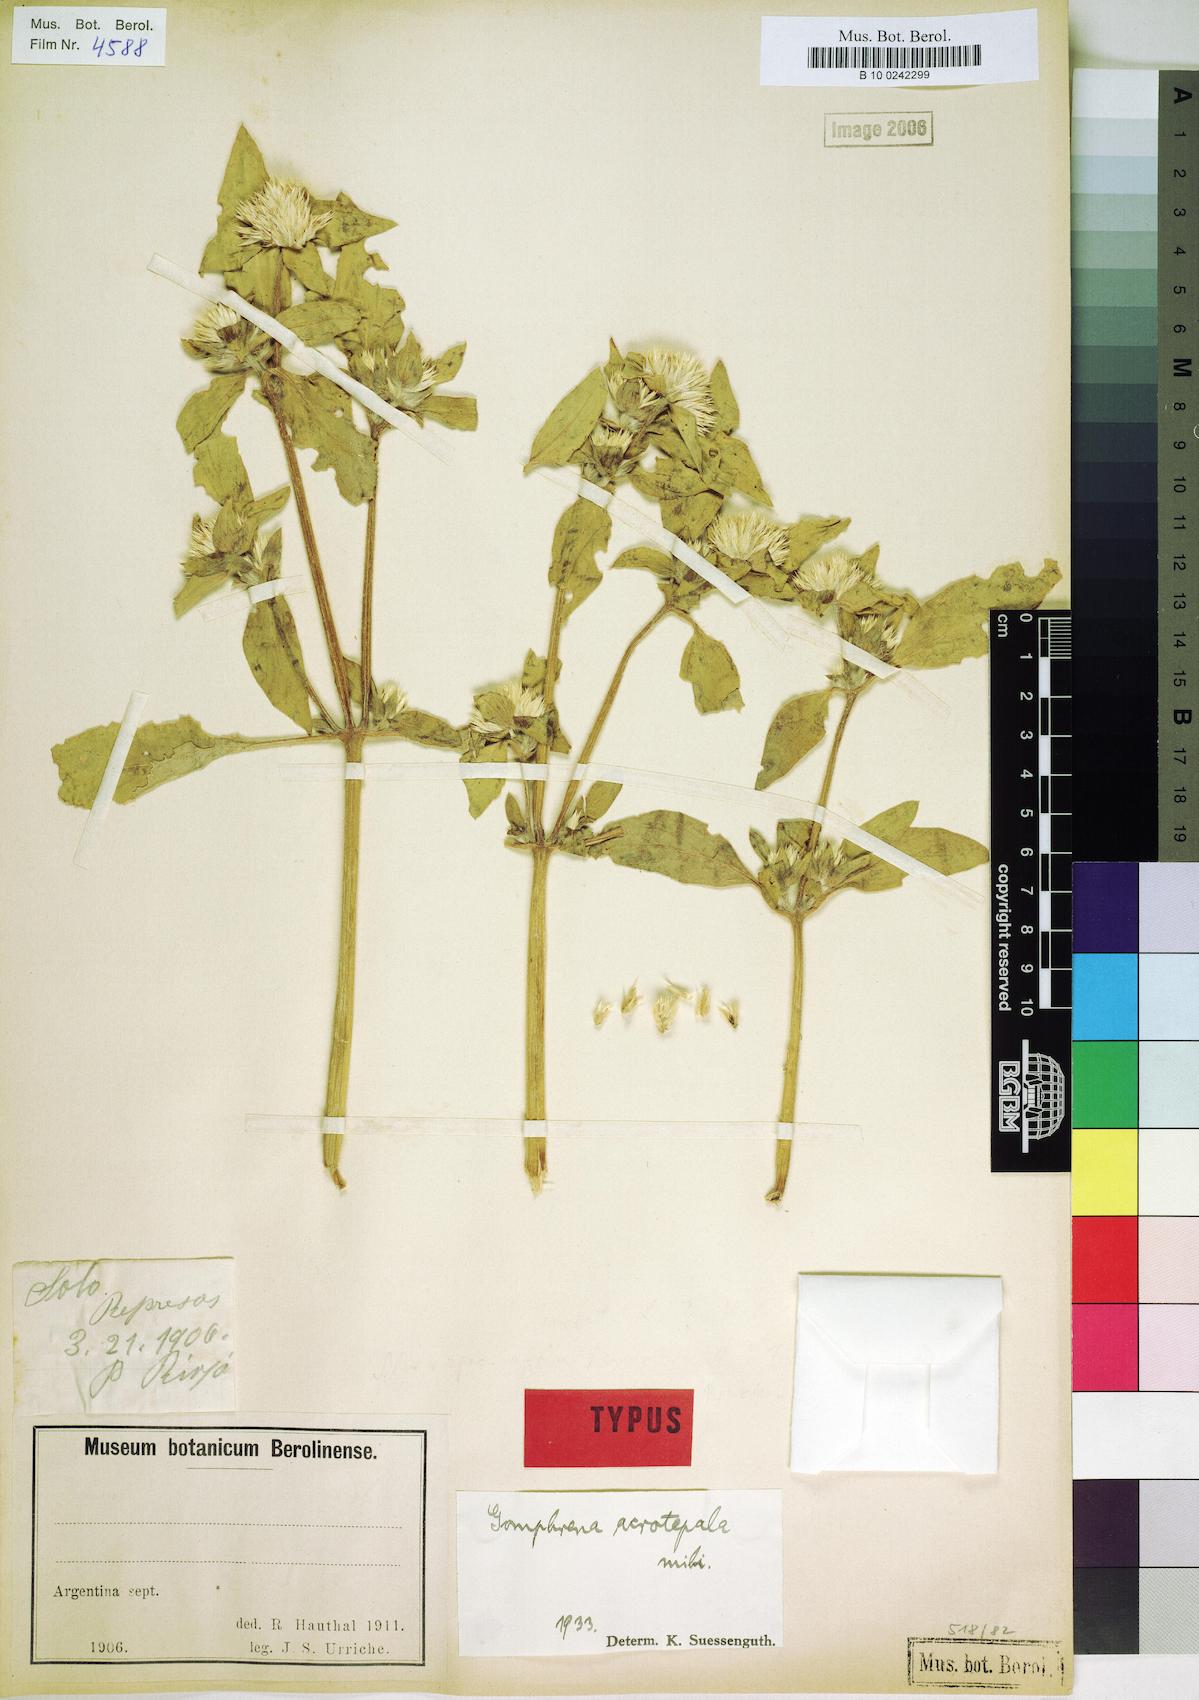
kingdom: Plantae
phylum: Tracheophyta
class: Magnoliopsida
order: Caryophyllales
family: Amaranthaceae
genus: Gomphrena
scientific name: Gomphrena boliviana
